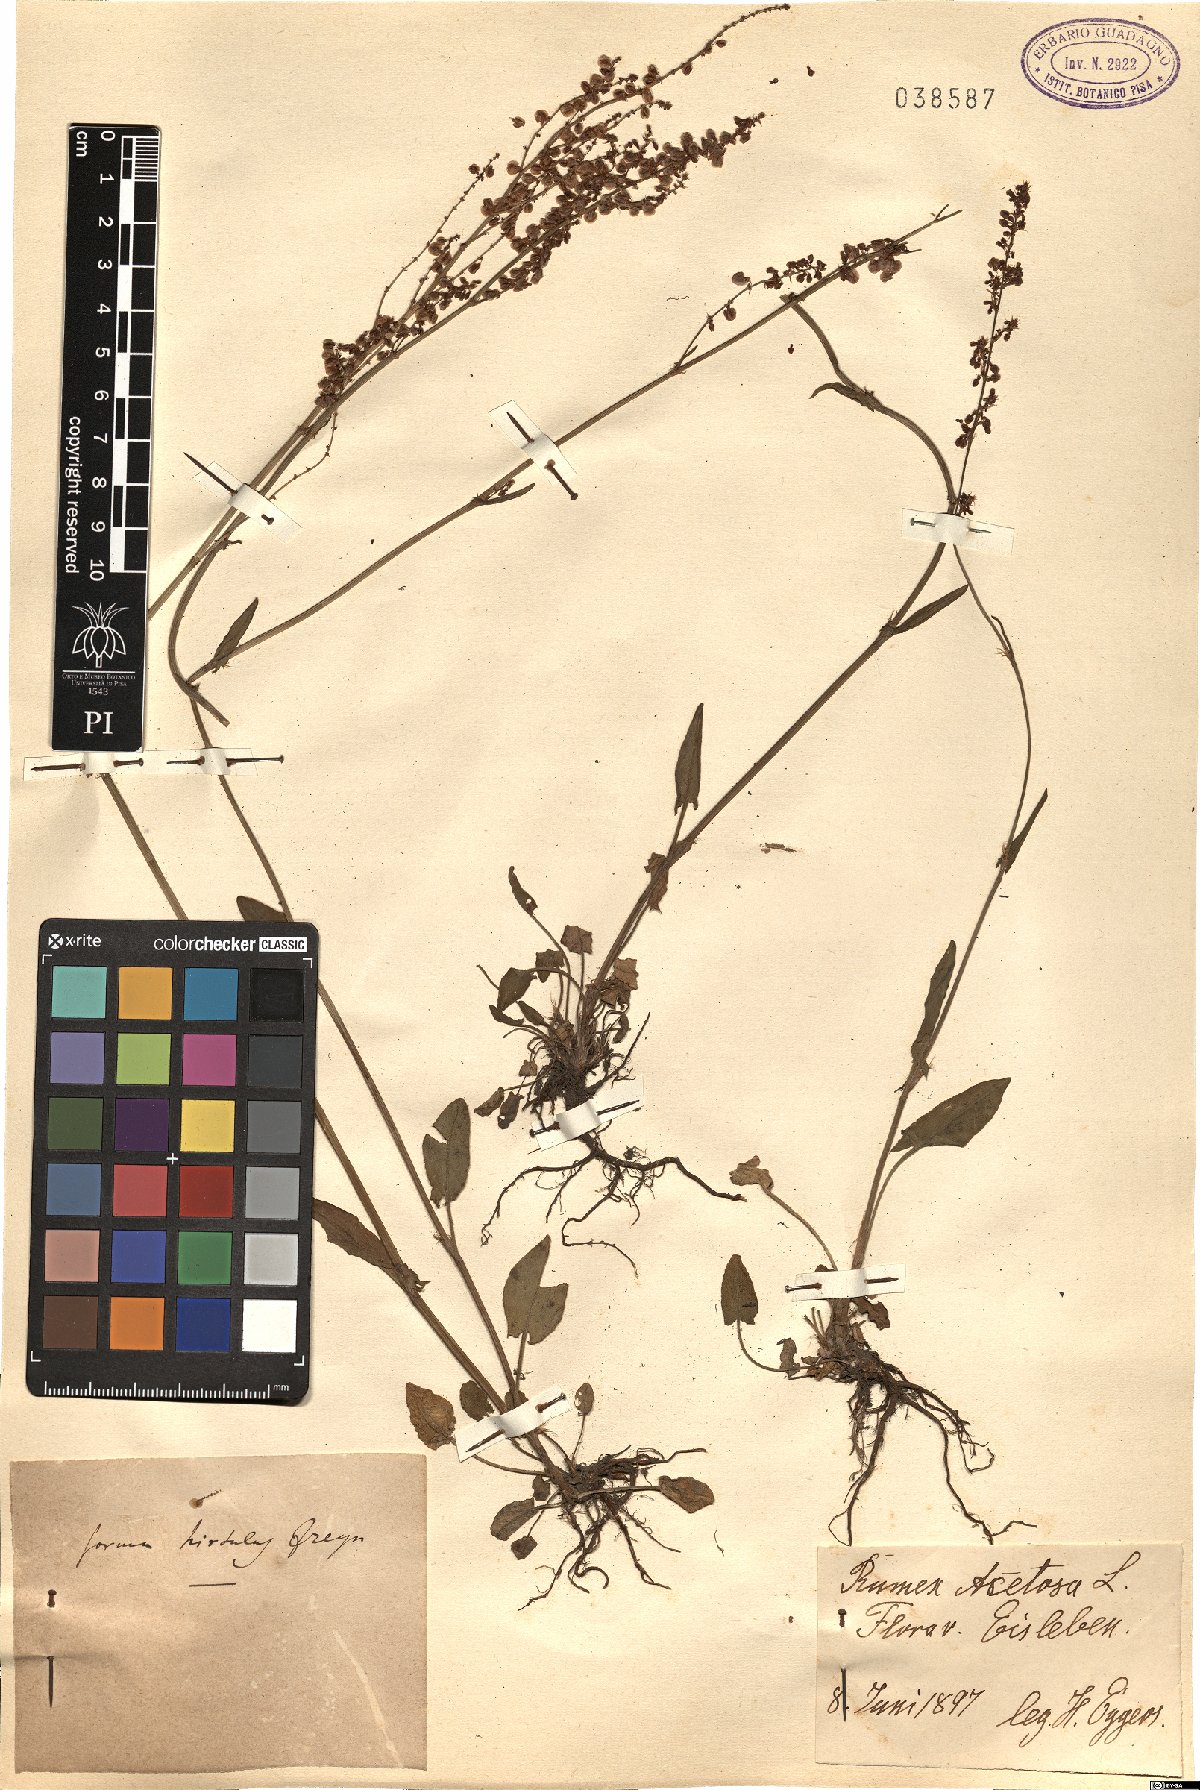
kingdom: Plantae
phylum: Tracheophyta
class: Magnoliopsida
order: Caryophyllales
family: Polygonaceae
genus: Rumex
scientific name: Rumex acetosa
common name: Garden sorrel
